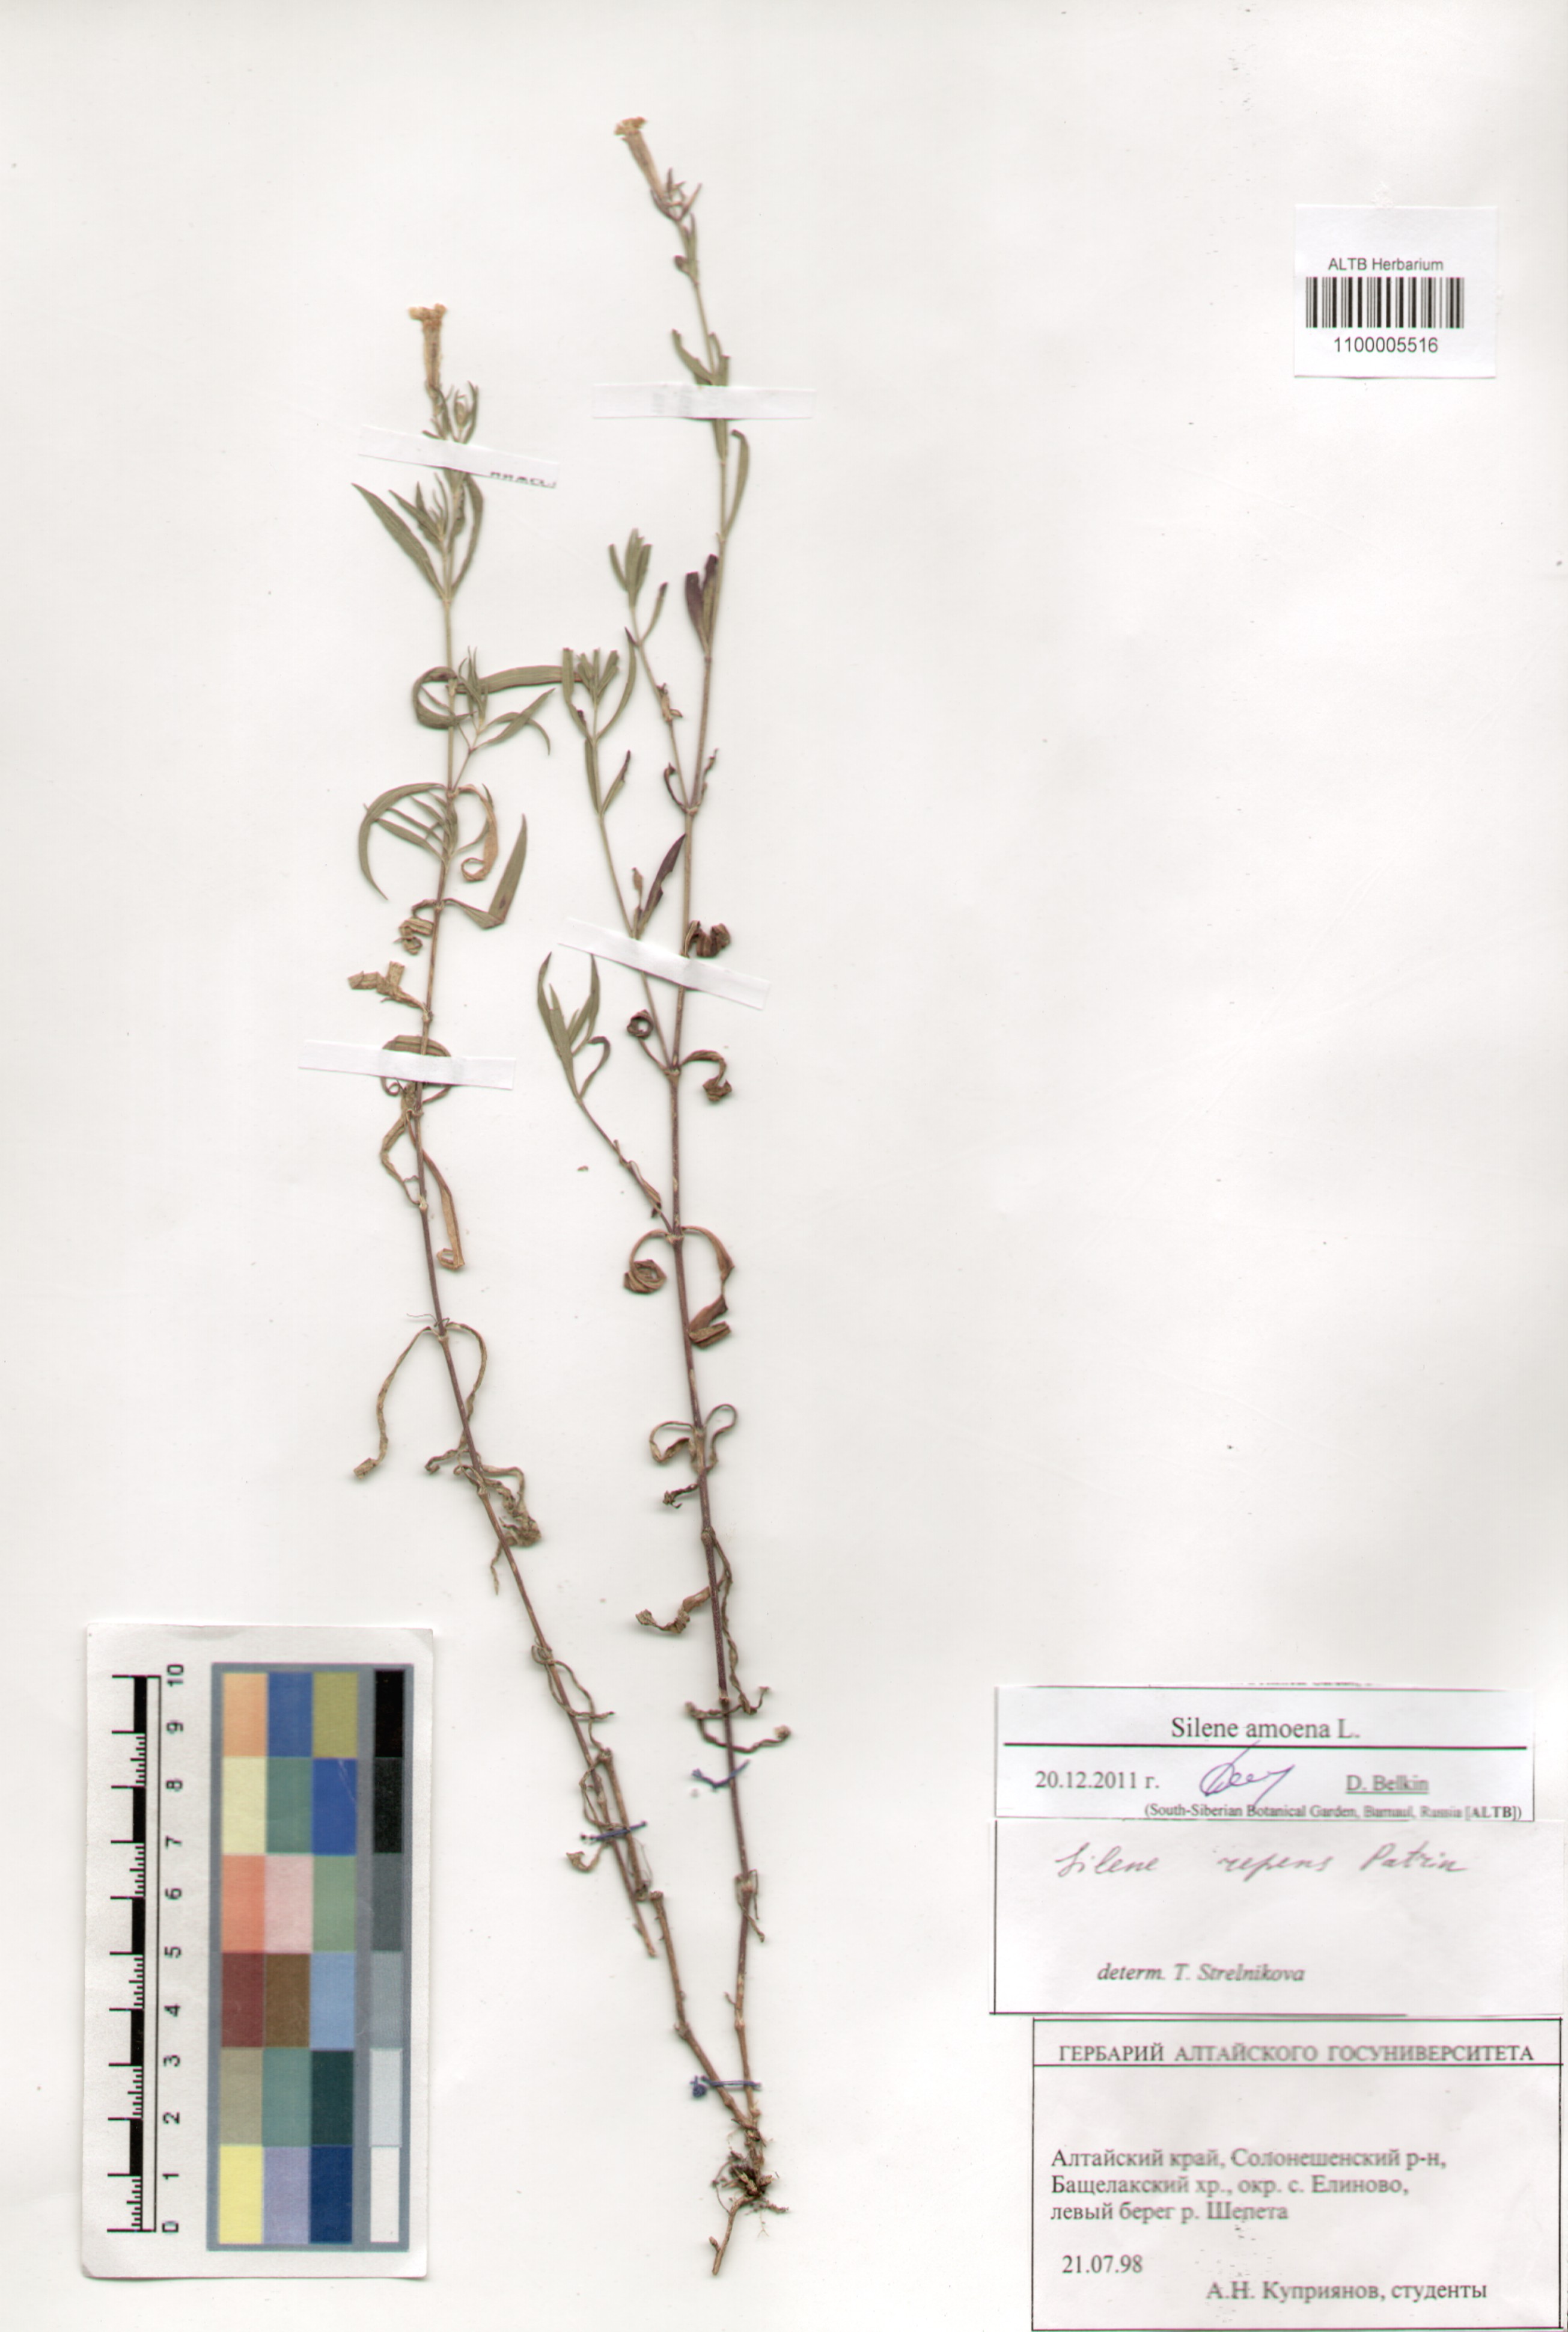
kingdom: Plantae
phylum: Tracheophyta
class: Magnoliopsida
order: Caryophyllales
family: Caryophyllaceae
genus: Silene
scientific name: Silene amoena
